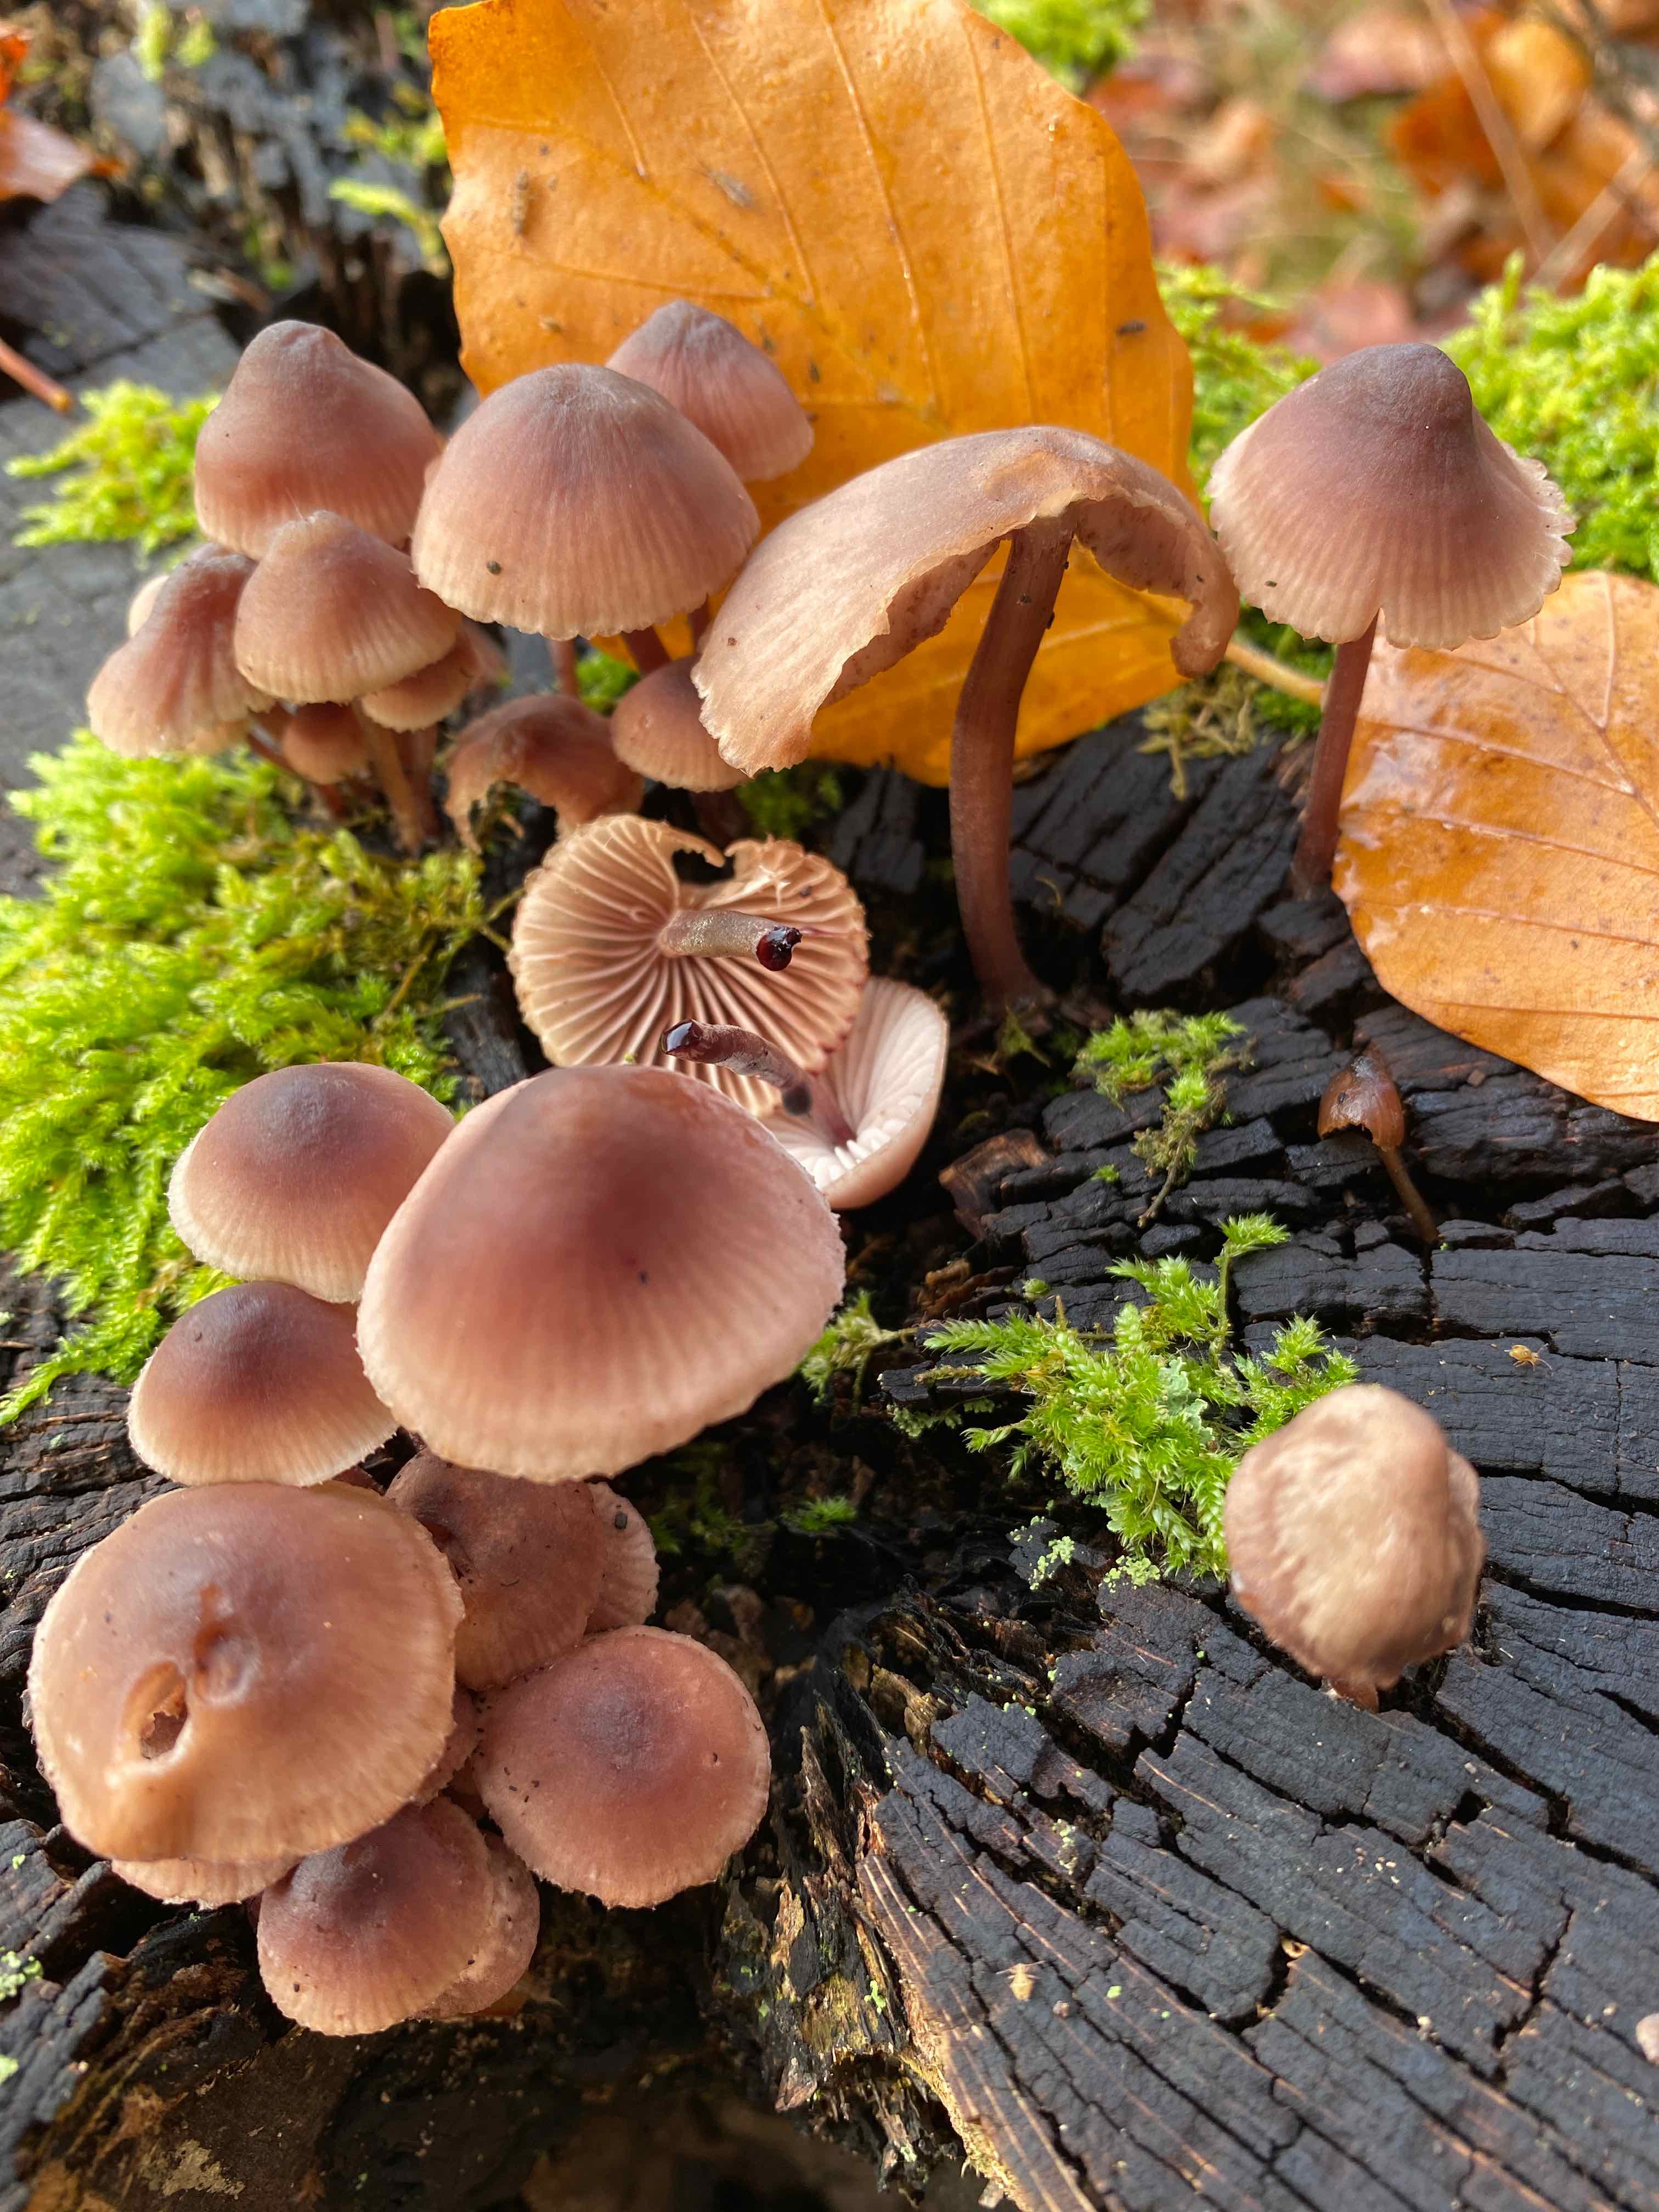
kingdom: Fungi
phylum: Basidiomycota
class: Agaricomycetes
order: Agaricales
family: Mycenaceae
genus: Mycena
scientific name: Mycena haematopus
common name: blødende huesvamp
